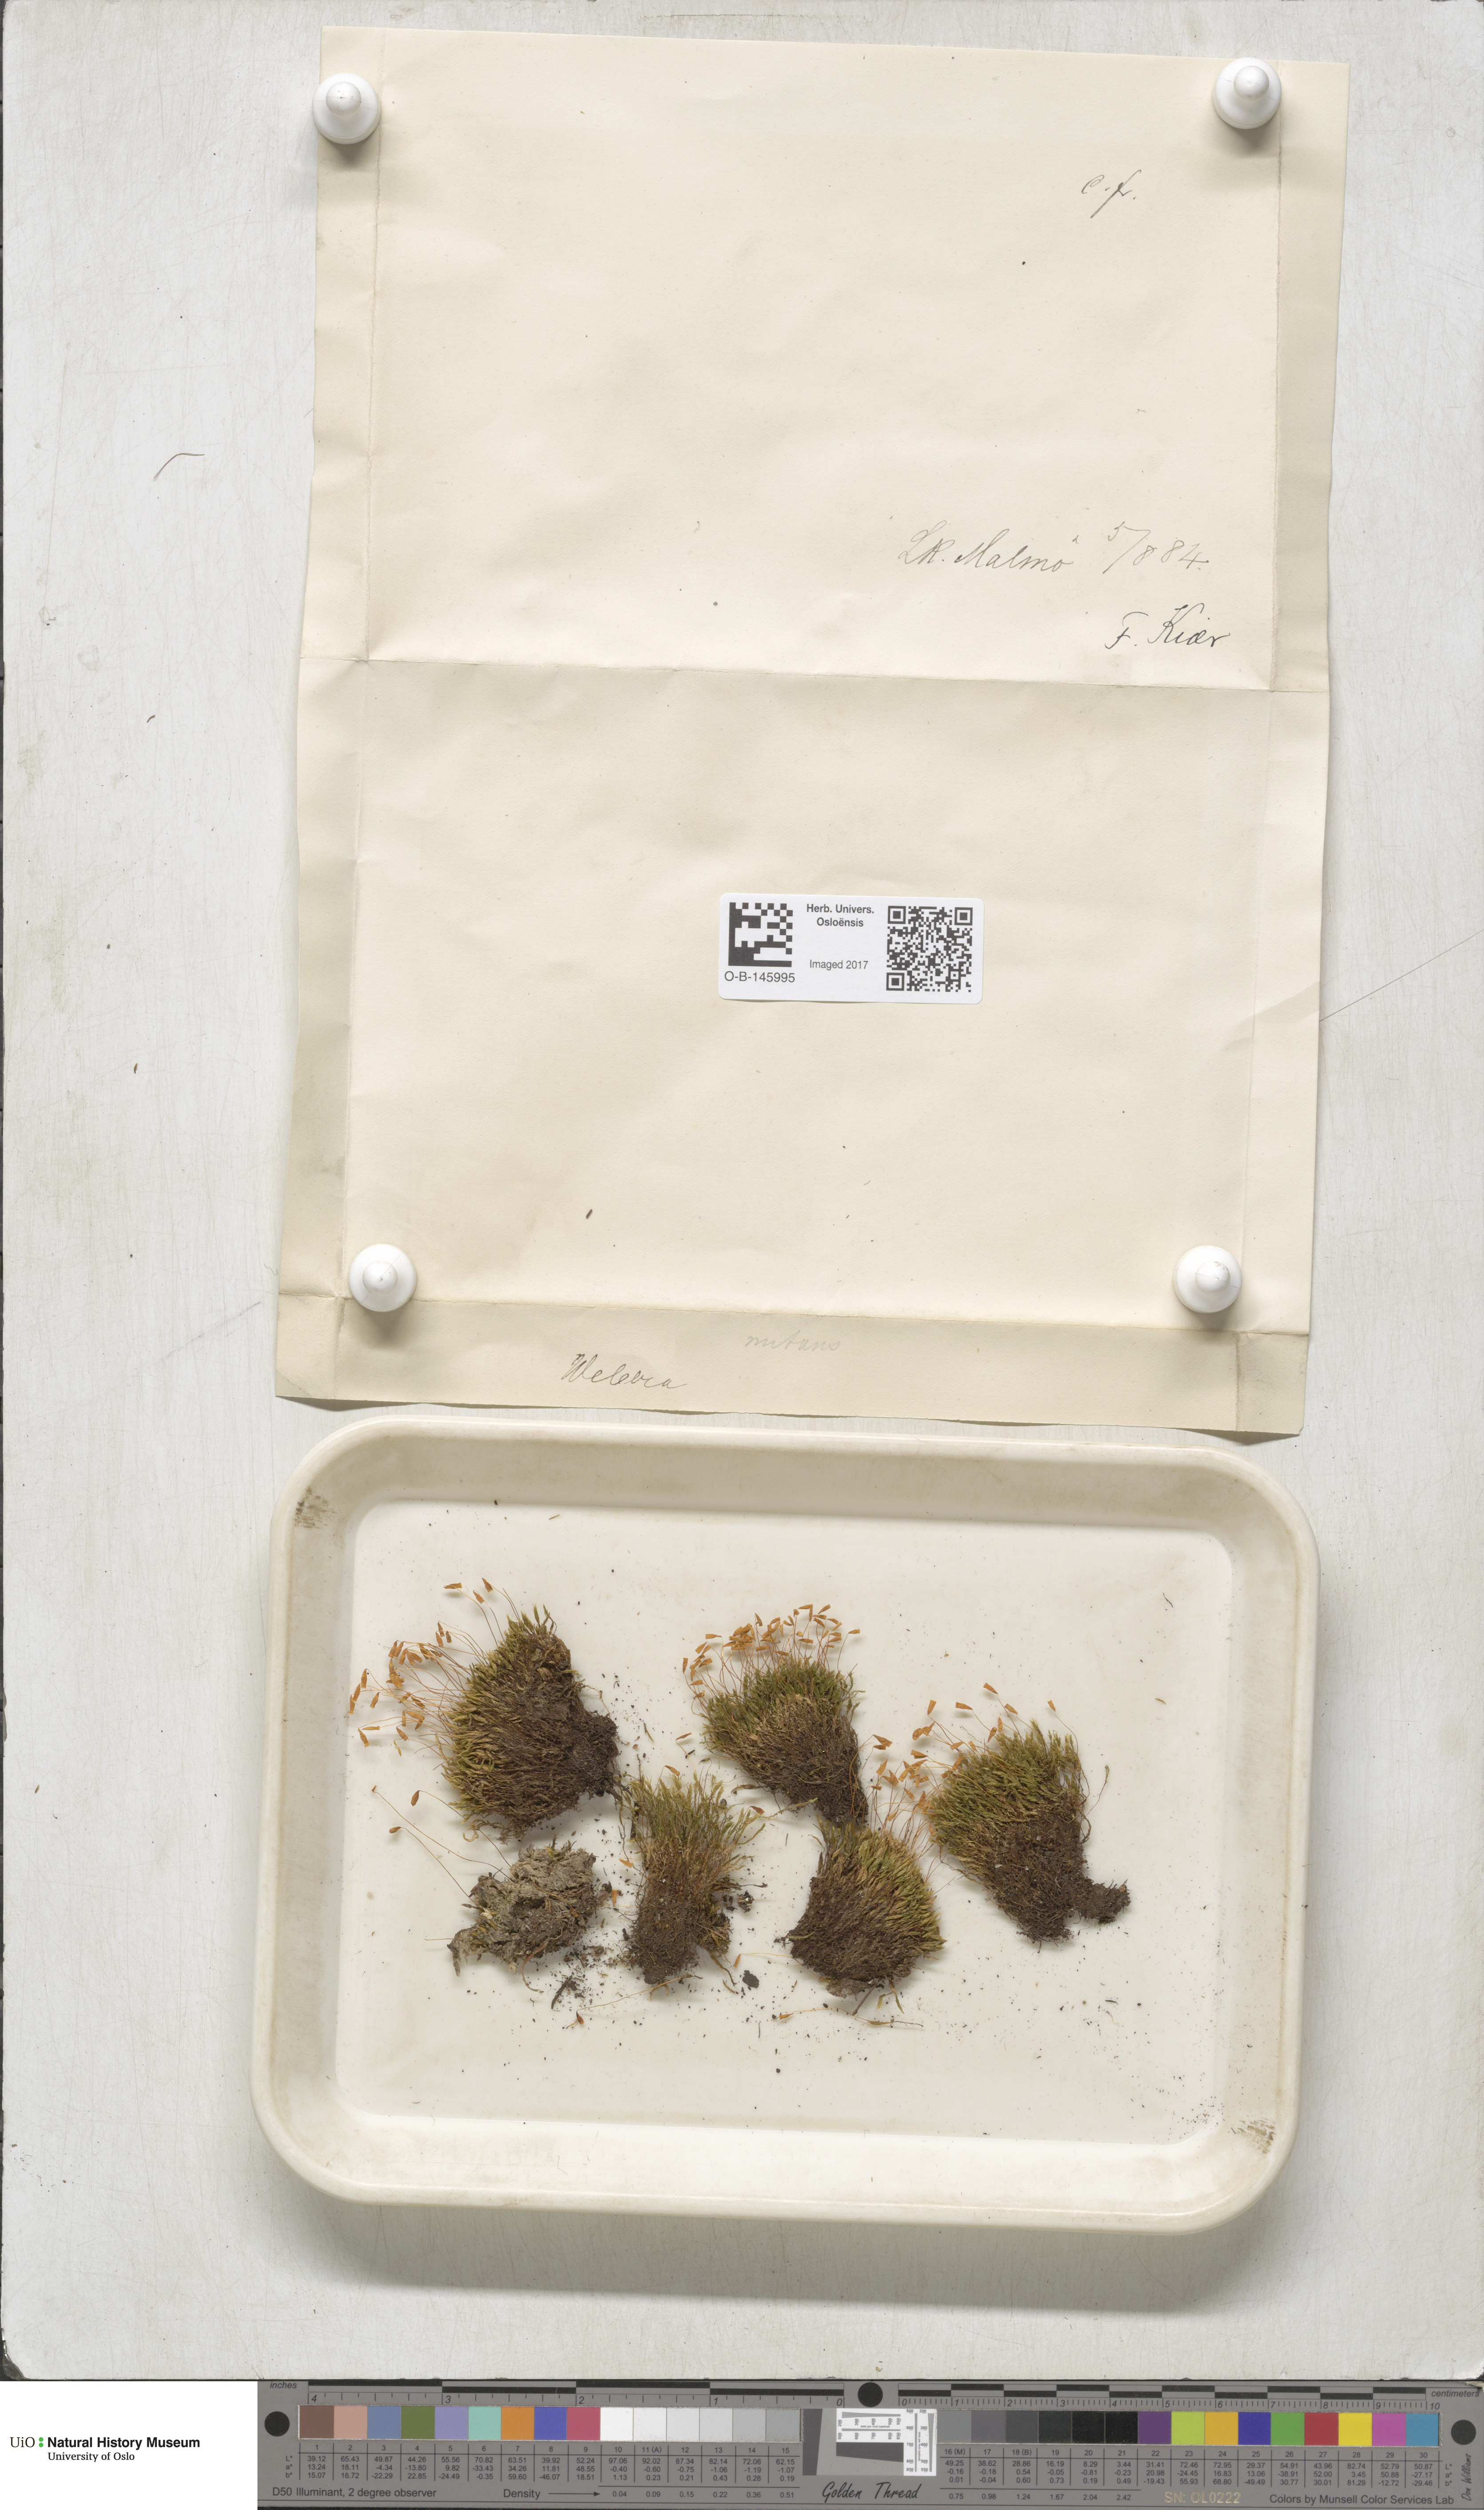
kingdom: Plantae
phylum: Bryophyta
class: Bryopsida
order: Bryales
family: Mniaceae
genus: Pohlia
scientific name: Pohlia nutans
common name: Nodding thread-moss
